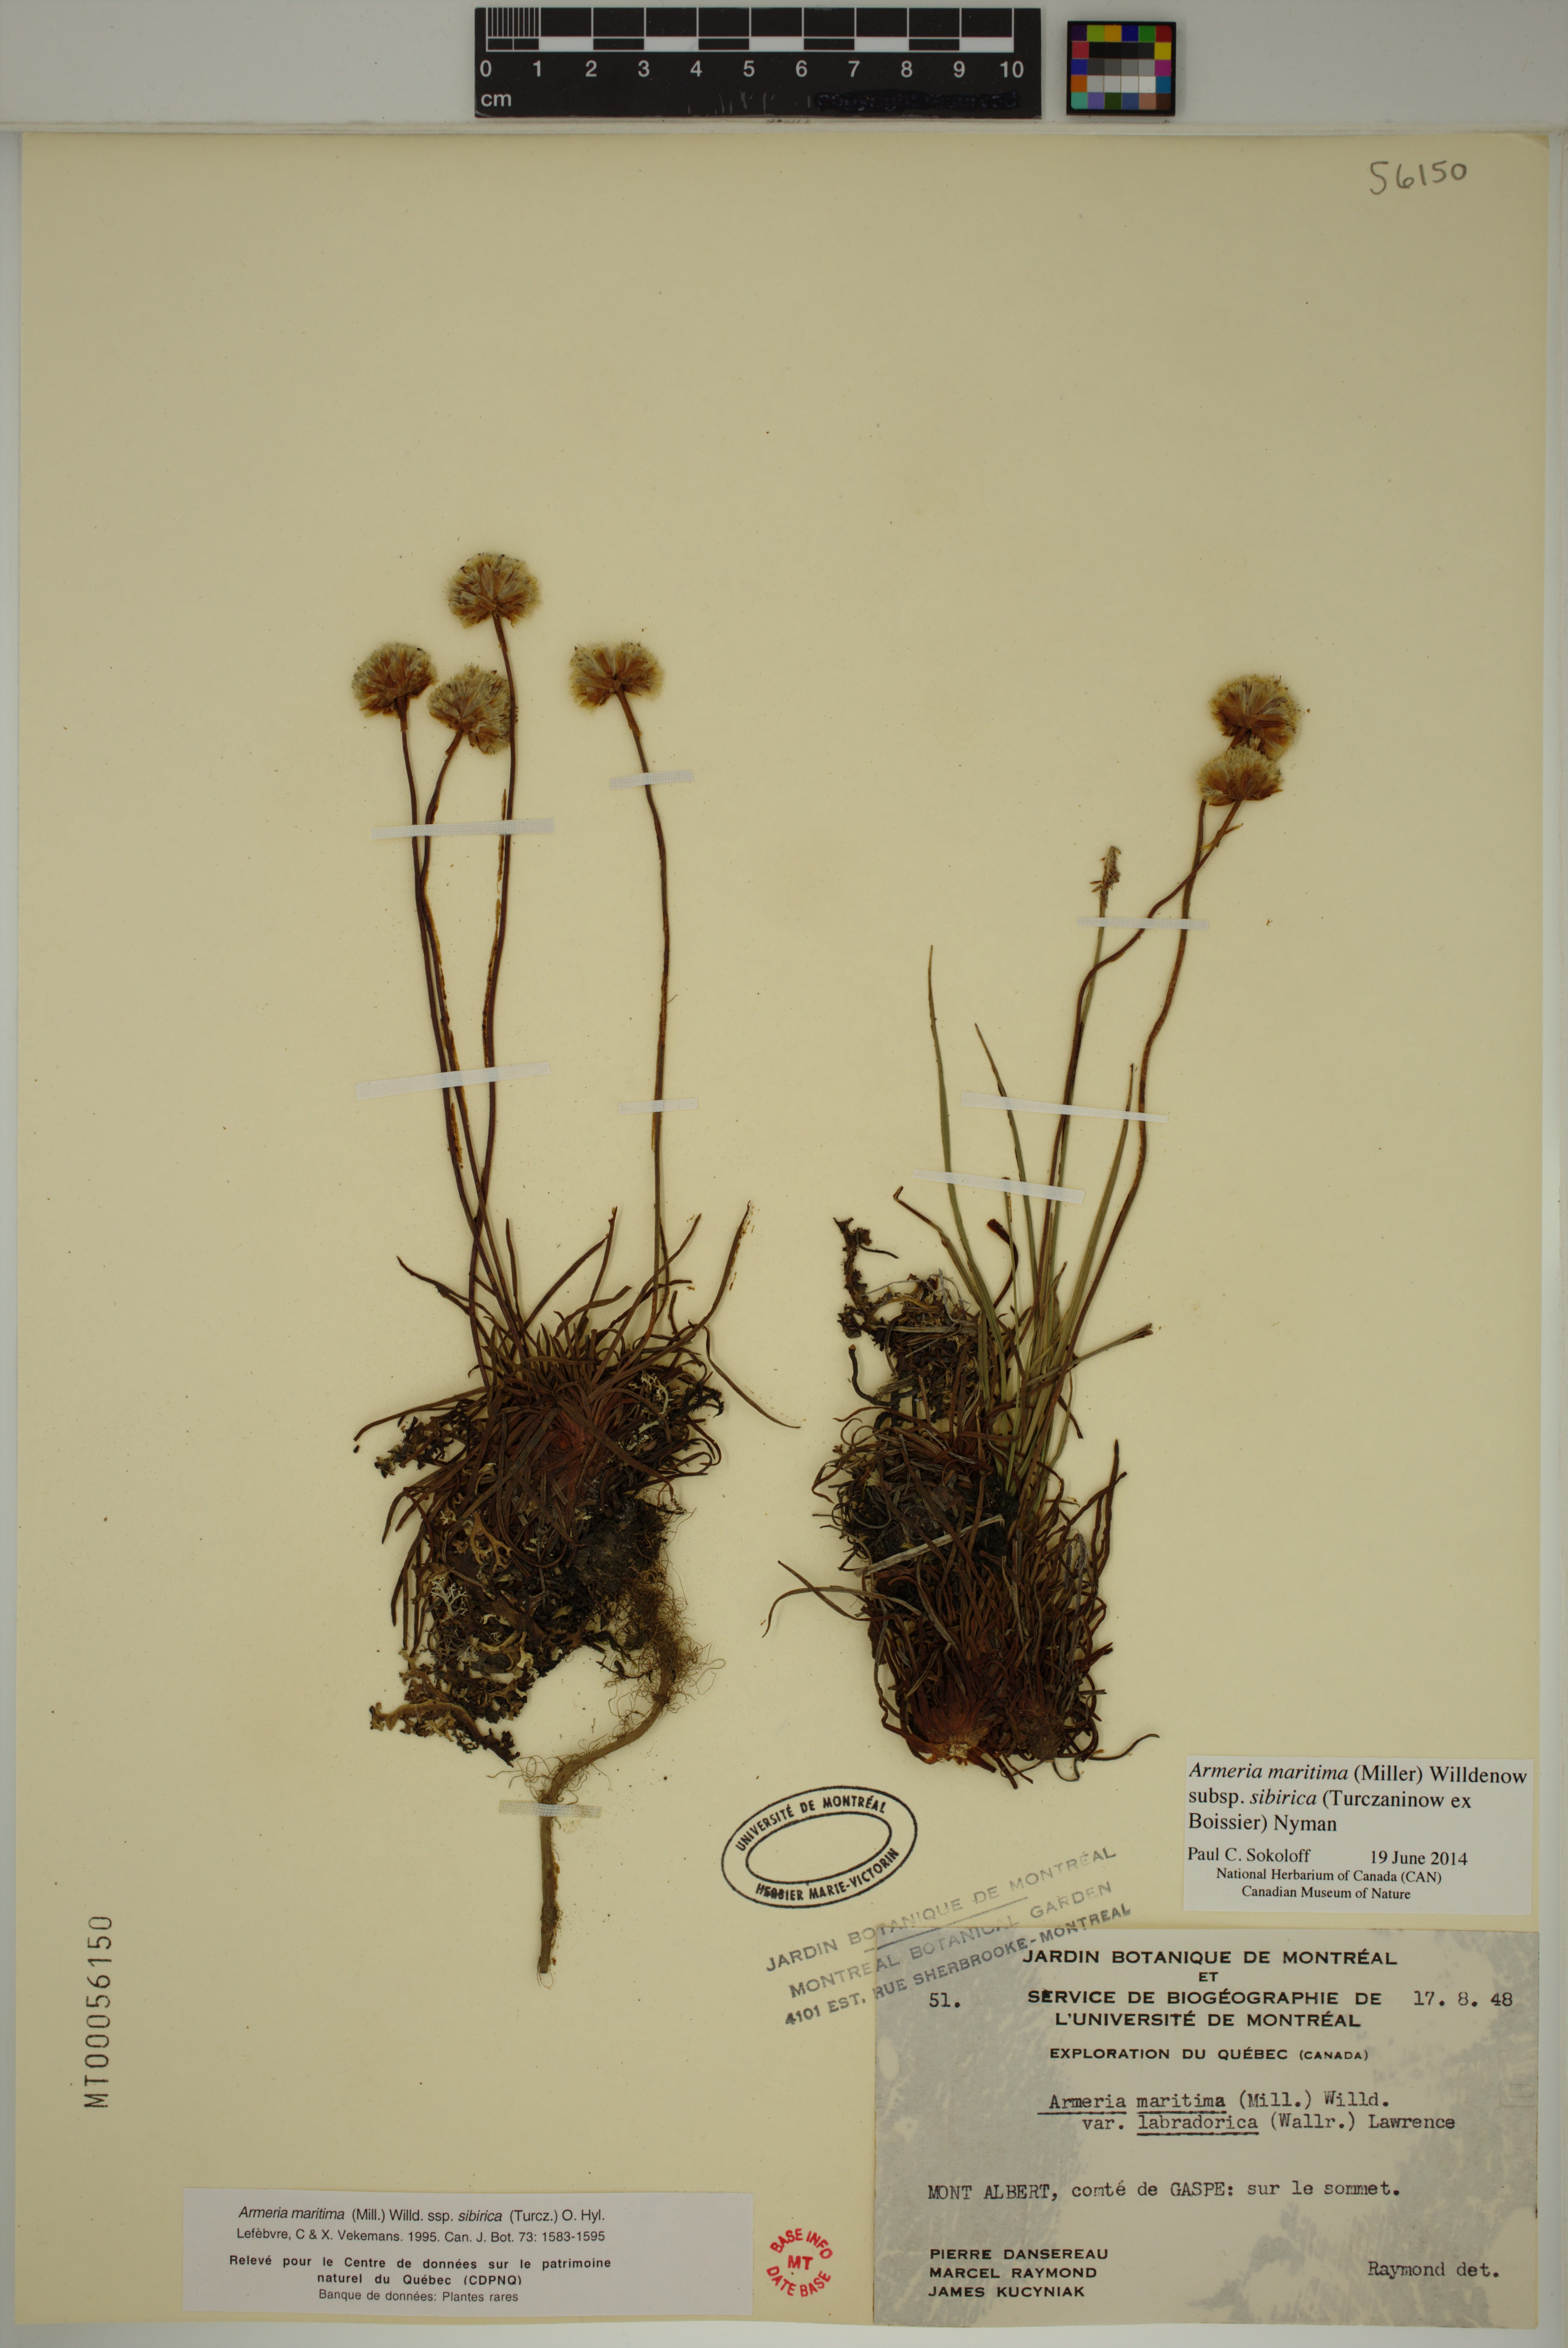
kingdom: Plantae
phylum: Tracheophyta
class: Magnoliopsida
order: Caryophyllales
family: Plumbaginaceae
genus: Armeria
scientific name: Armeria maritima
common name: Thrift
